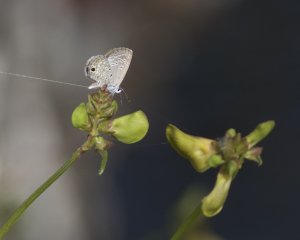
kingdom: Animalia
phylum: Arthropoda
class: Insecta
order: Lepidoptera
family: Lycaenidae
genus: Hemiargus
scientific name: Hemiargus ceraunus
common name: Ceraunus Blue
